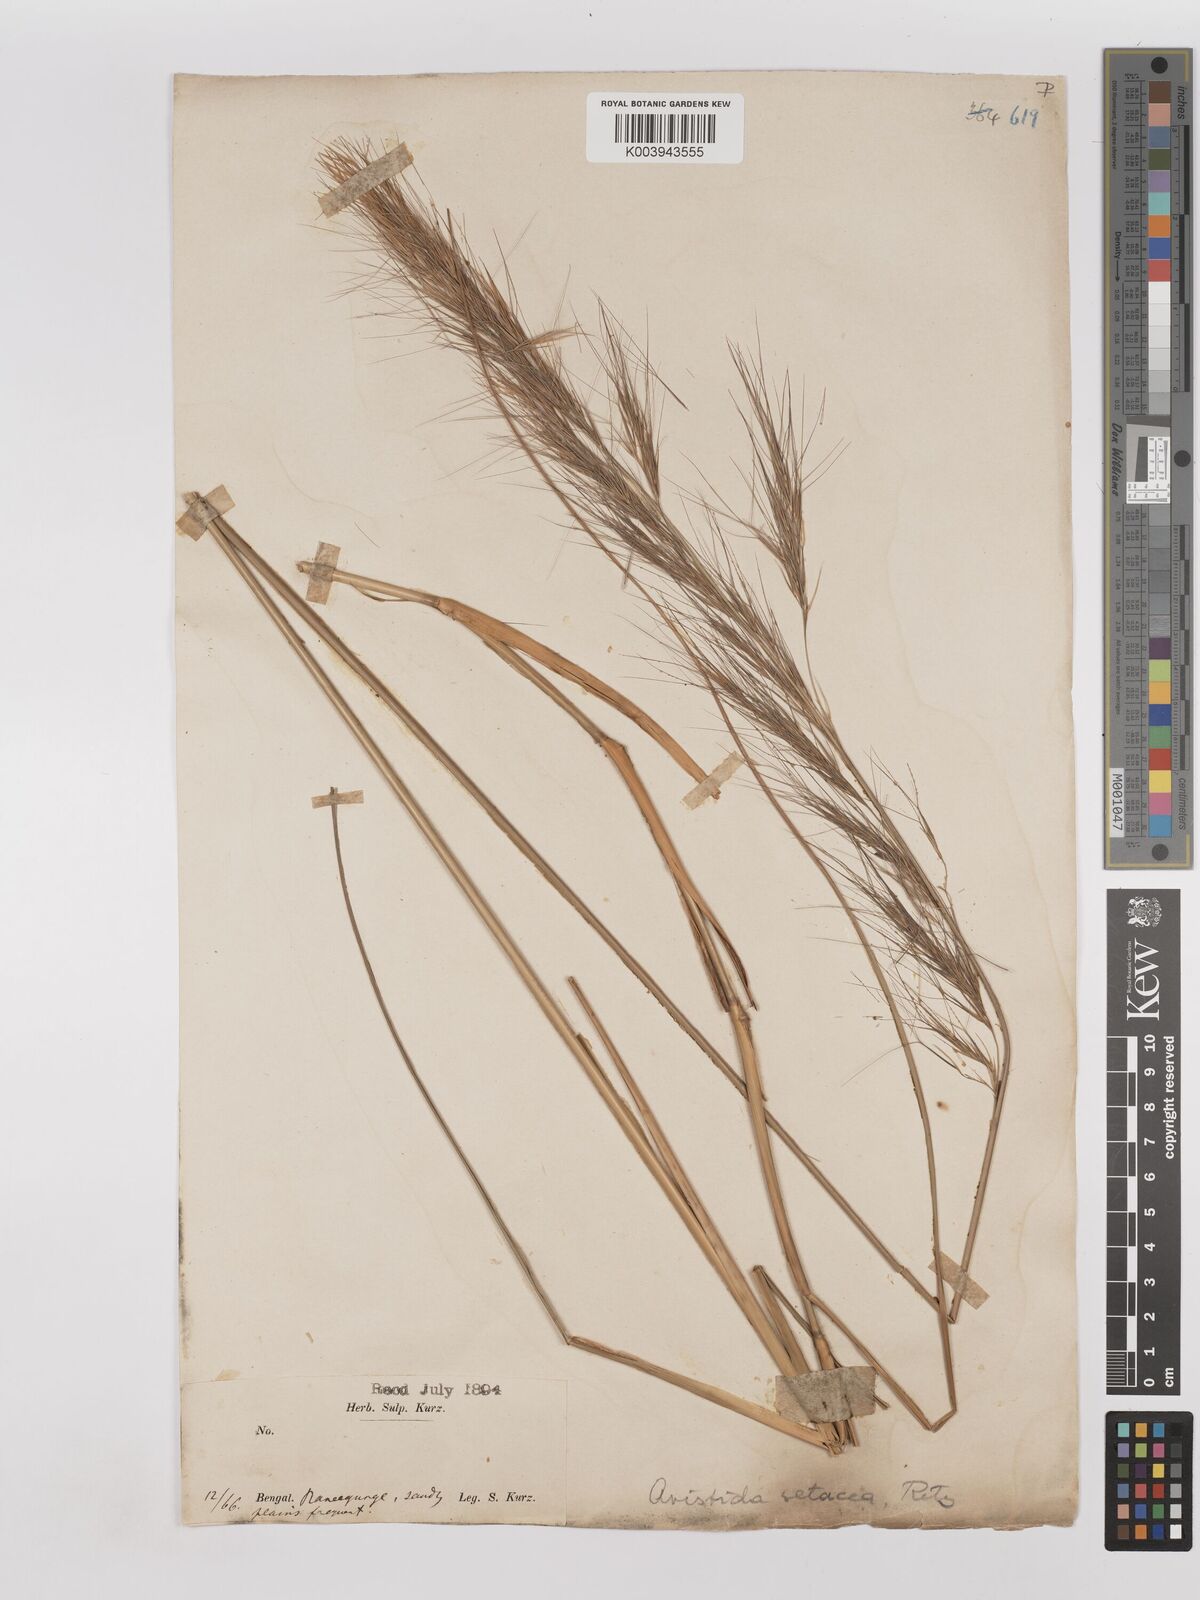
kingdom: Plantae
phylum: Tracheophyta
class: Liliopsida
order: Poales
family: Poaceae
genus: Aristida
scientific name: Aristida setacea
